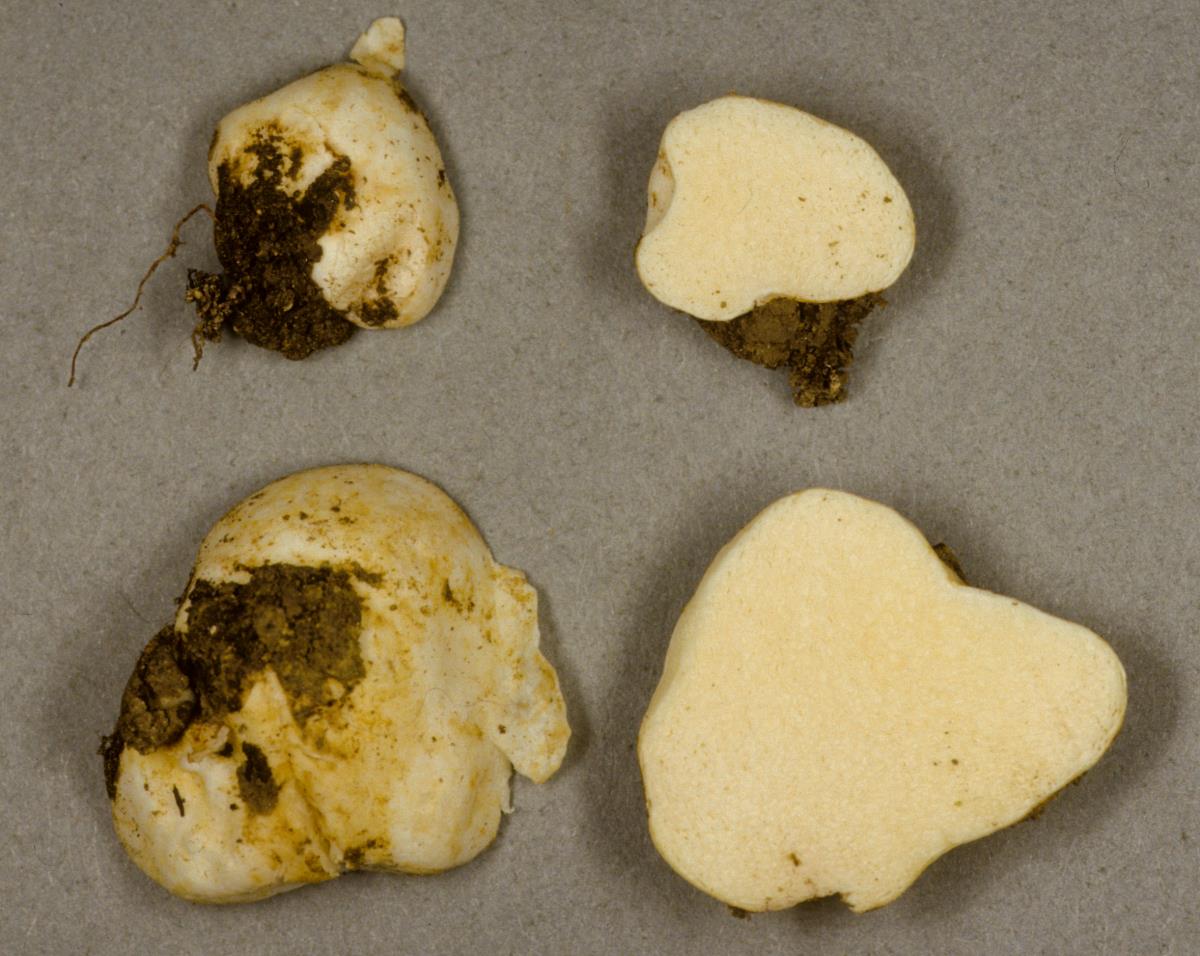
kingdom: Fungi
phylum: Basidiomycota
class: Agaricomycetes
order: Russulales
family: Russulaceae
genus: Russula
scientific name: Russula osphranticarpa
